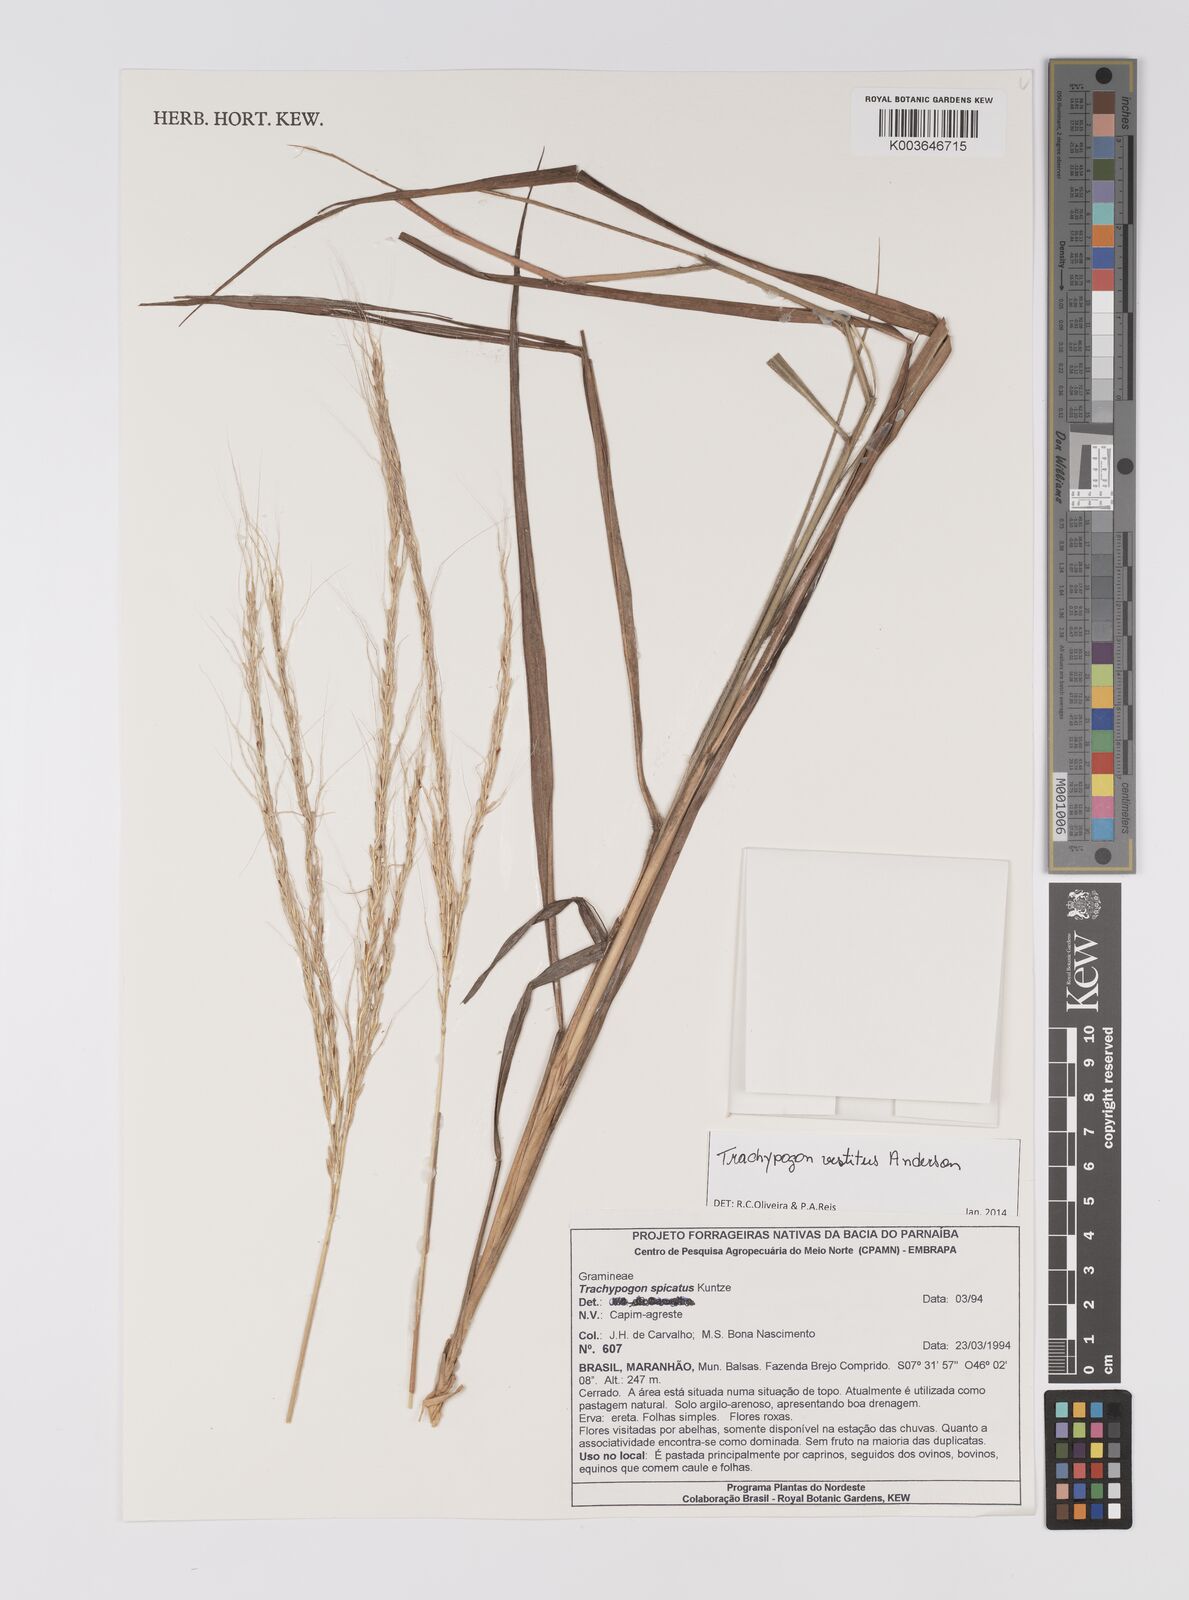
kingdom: Plantae
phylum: Tracheophyta
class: Liliopsida
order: Poales
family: Poaceae
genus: Trachypogon
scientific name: Trachypogon vestitus
